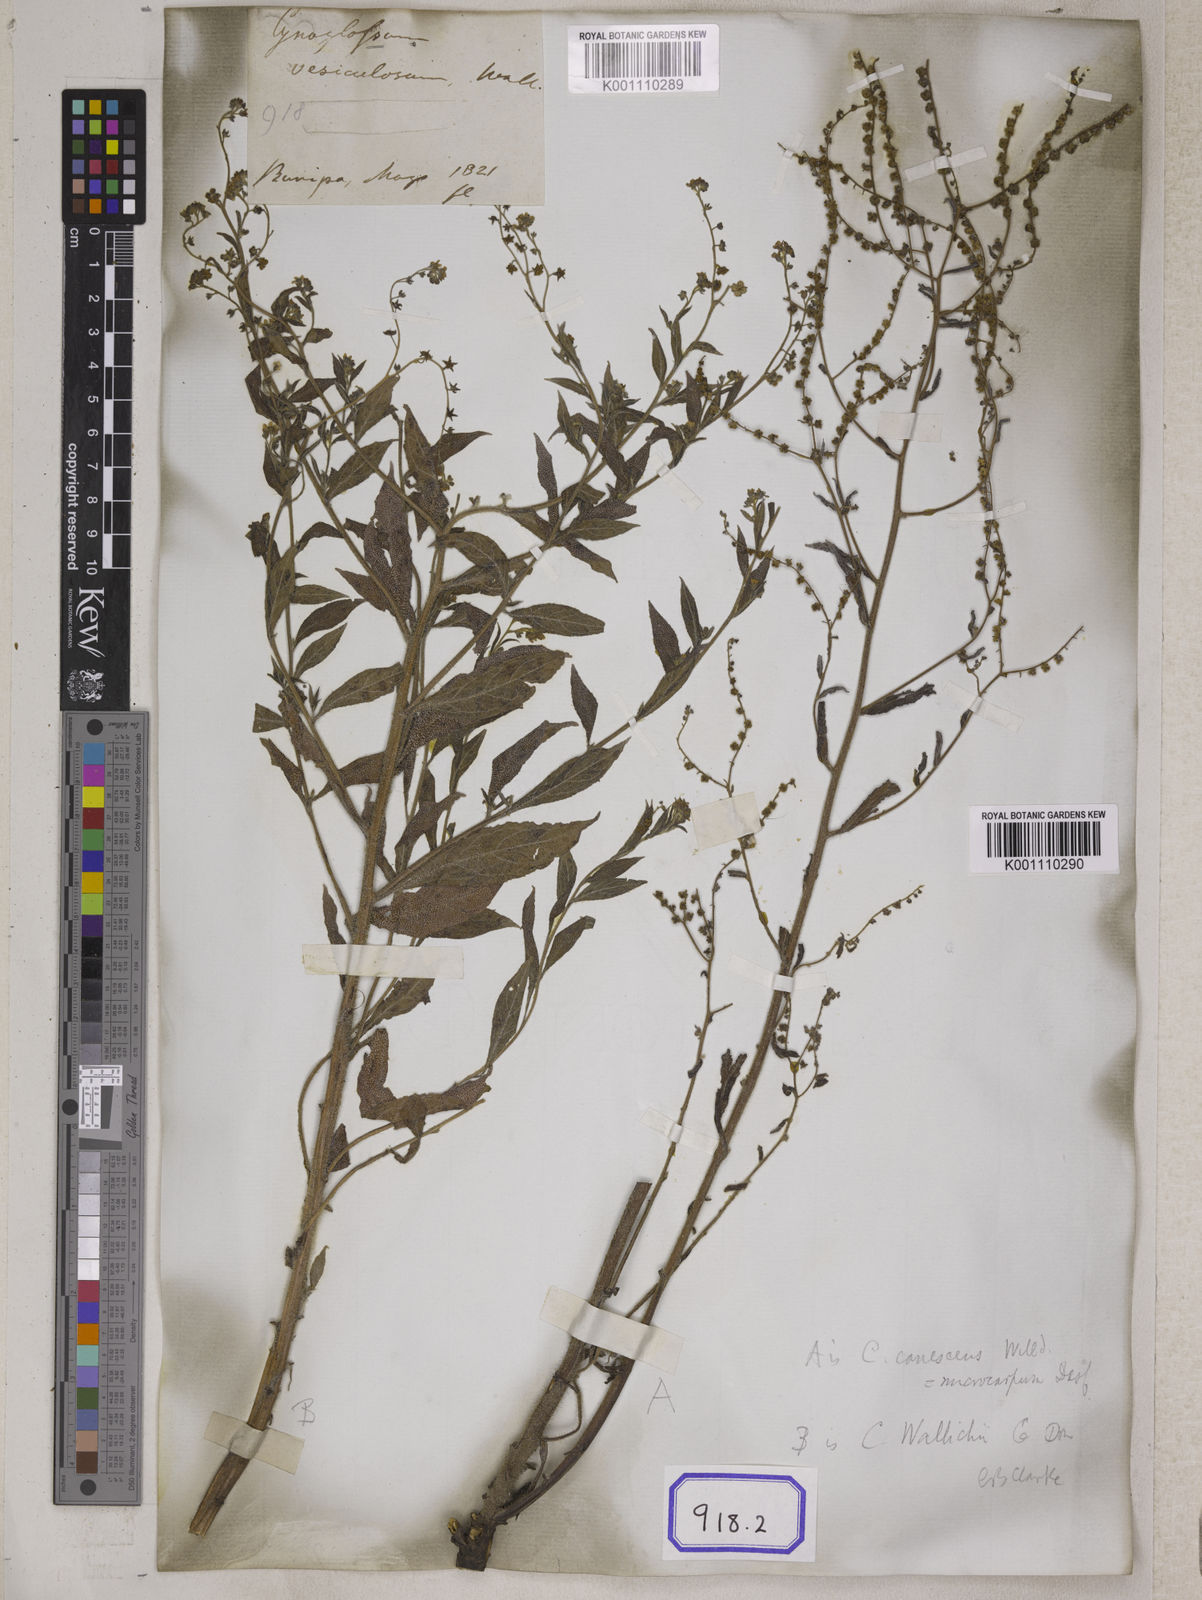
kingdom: Plantae
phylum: Tracheophyta
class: Magnoliopsida
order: Boraginales
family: Boraginaceae
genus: Paracynoglossum
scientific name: Paracynoglossum lanceolatum
